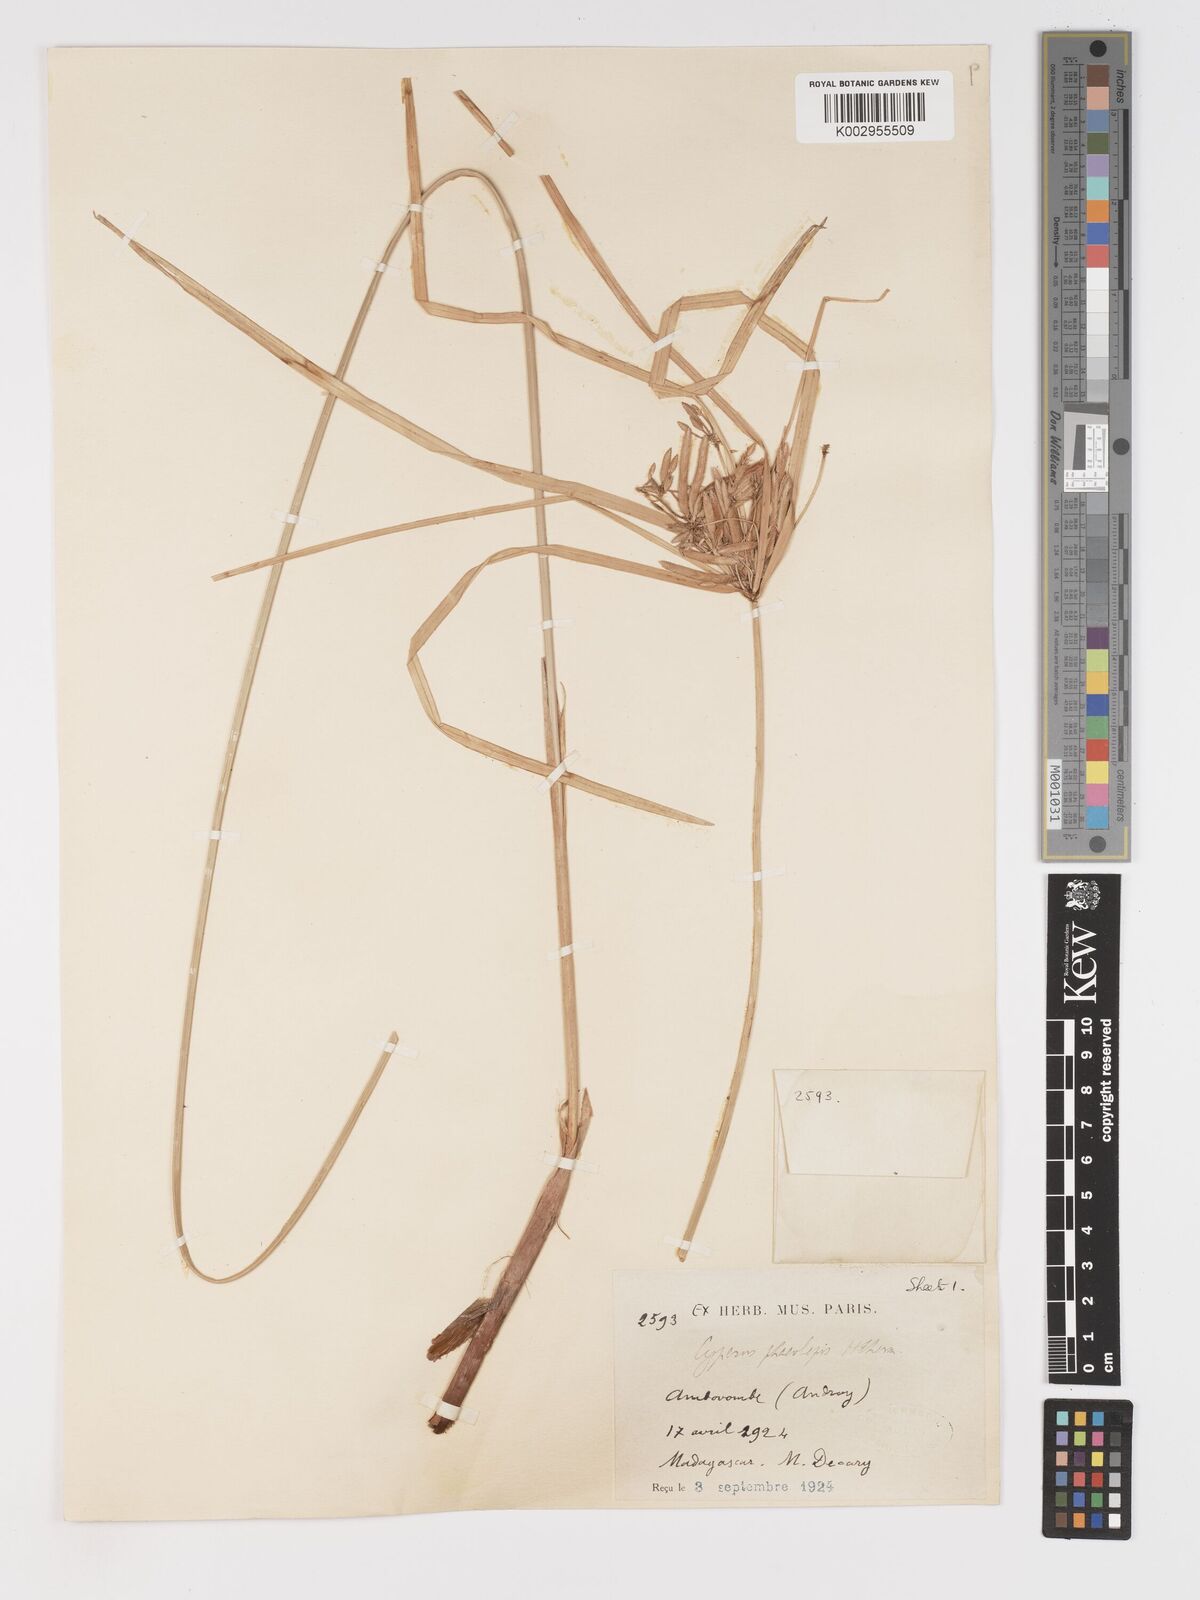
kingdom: Plantae
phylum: Tracheophyta
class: Liliopsida
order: Poales
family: Cyperaceae
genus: Cyperus
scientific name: Cyperus phaeolepis
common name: Madagascar flatsedge
